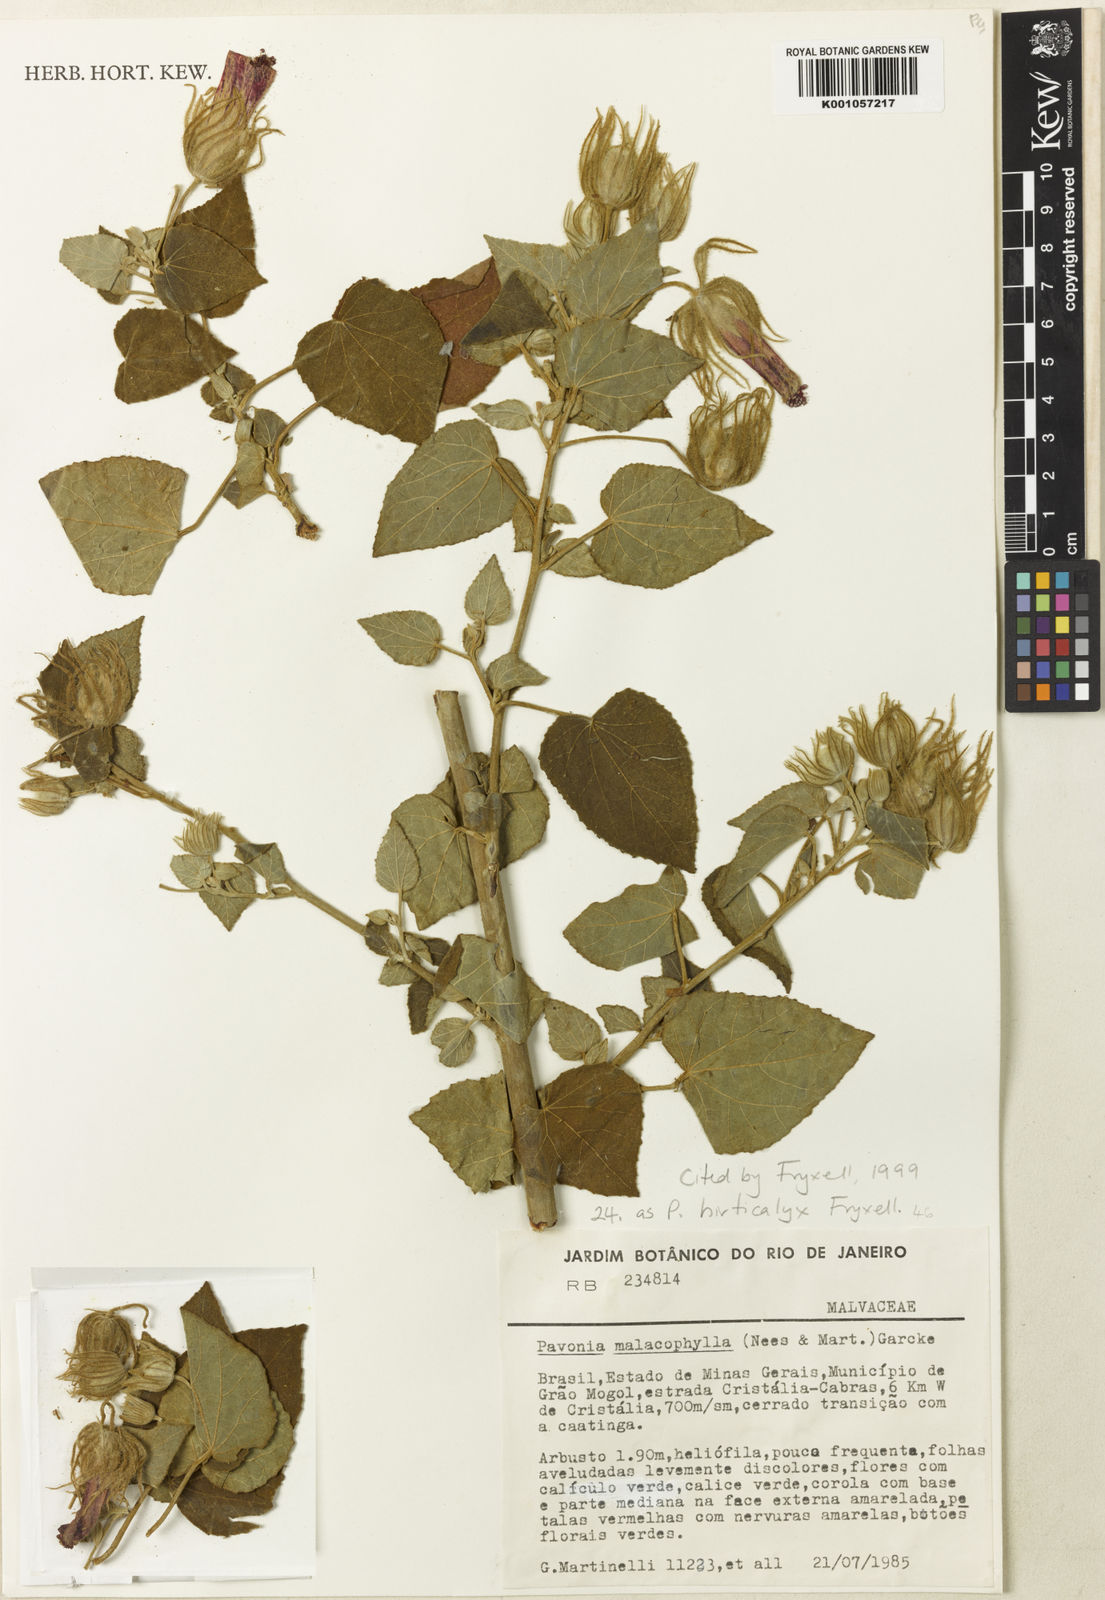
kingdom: Plantae
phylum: Tracheophyta
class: Magnoliopsida
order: Malvales
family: Malvaceae
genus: Pavonia
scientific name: Pavonia hirticalyx
